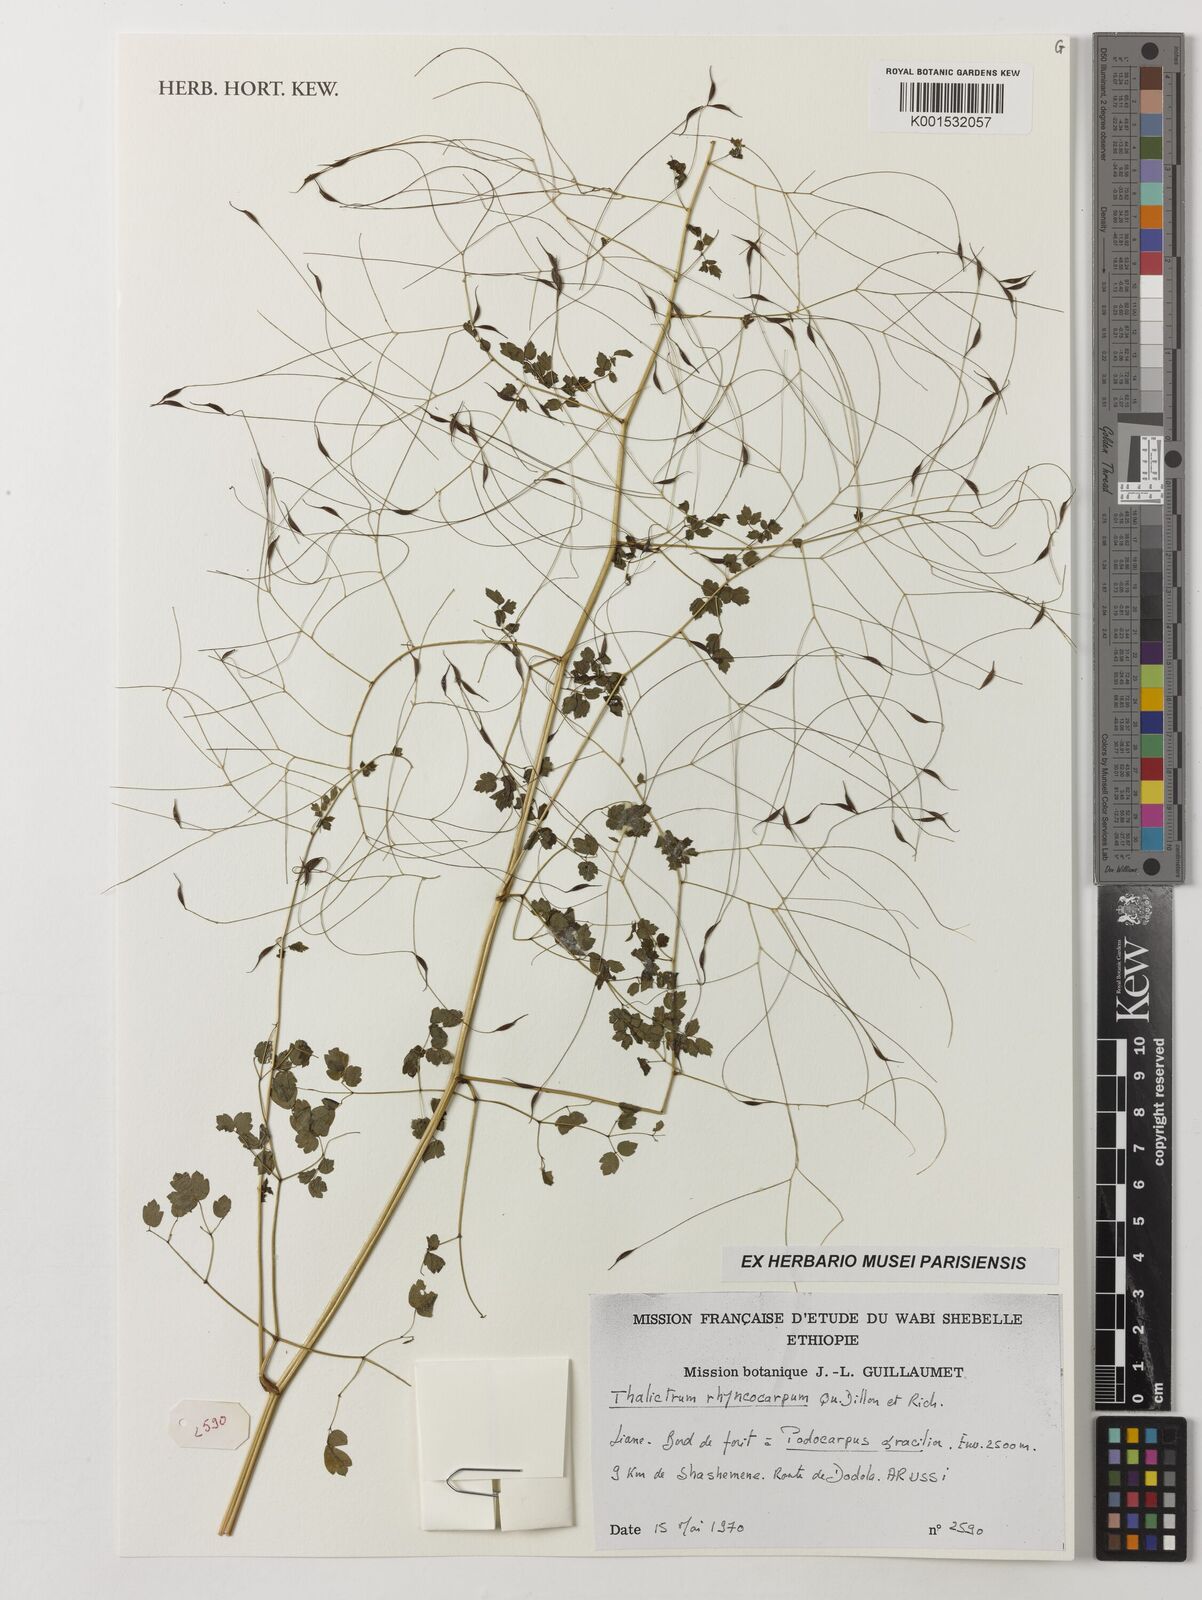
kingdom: Plantae
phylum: Tracheophyta
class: Magnoliopsida
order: Ranunculales
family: Ranunculaceae
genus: Thalictrum
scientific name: Thalictrum rhynchocarpum
